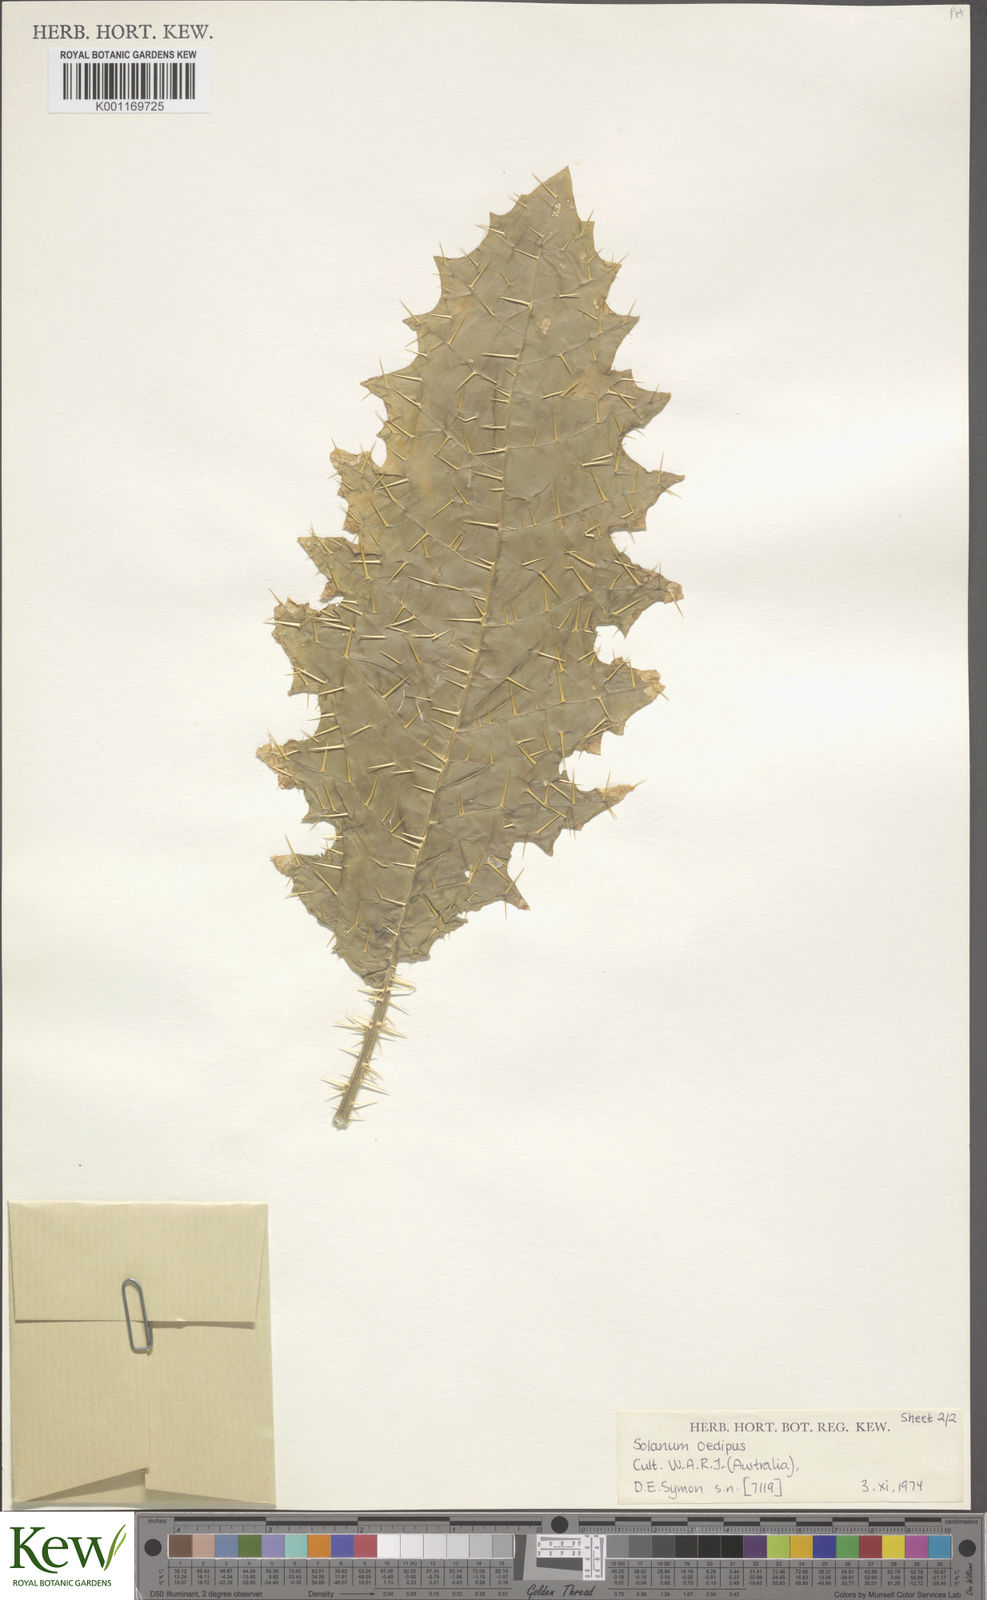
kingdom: Plantae
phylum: Tracheophyta
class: Magnoliopsida
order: Solanales
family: Solanaceae
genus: Solanum
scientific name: Solanum oedipus
